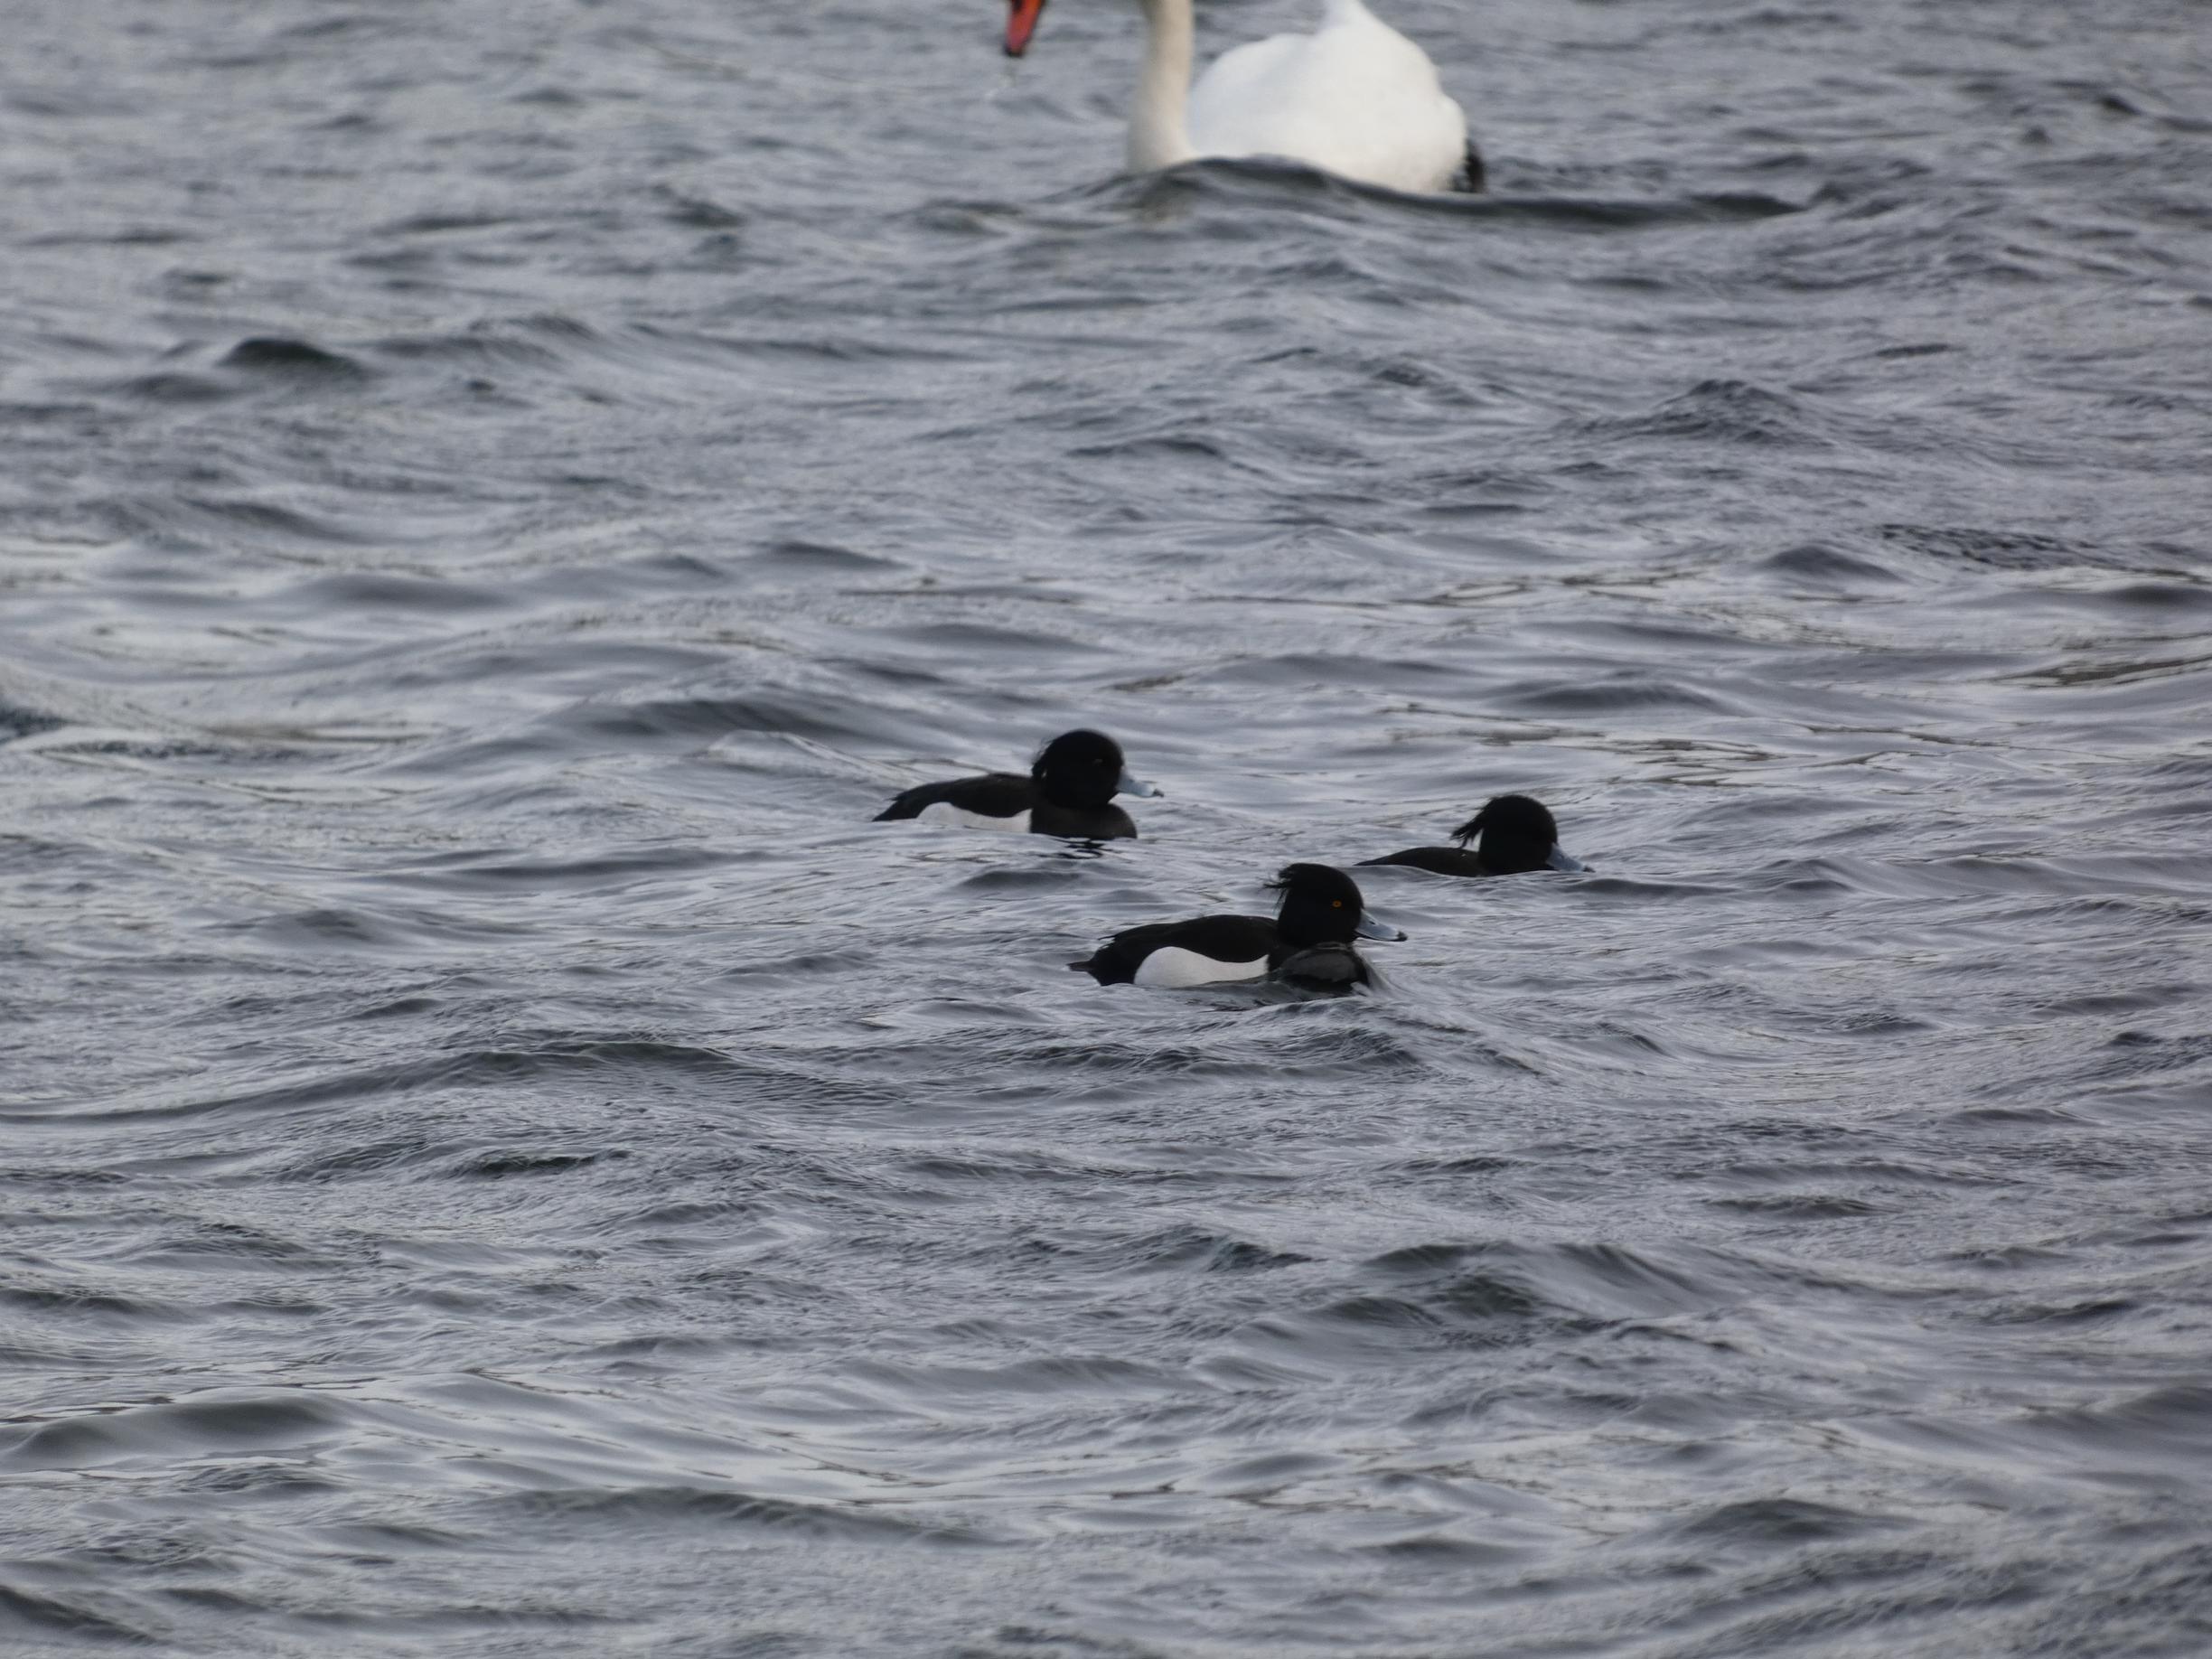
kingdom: Animalia
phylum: Chordata
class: Aves
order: Anseriformes
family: Anatidae
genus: Aythya
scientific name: Aythya fuligula
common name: Troldand
